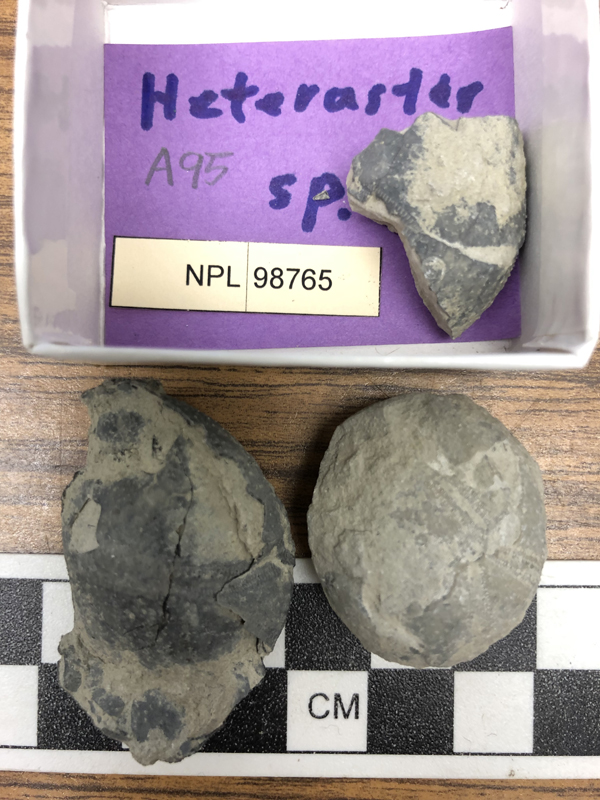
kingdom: Animalia
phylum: Echinodermata
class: Echinoidea
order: Spatangoida
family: Toxasteridae
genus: Heteraster
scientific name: Heteraster
